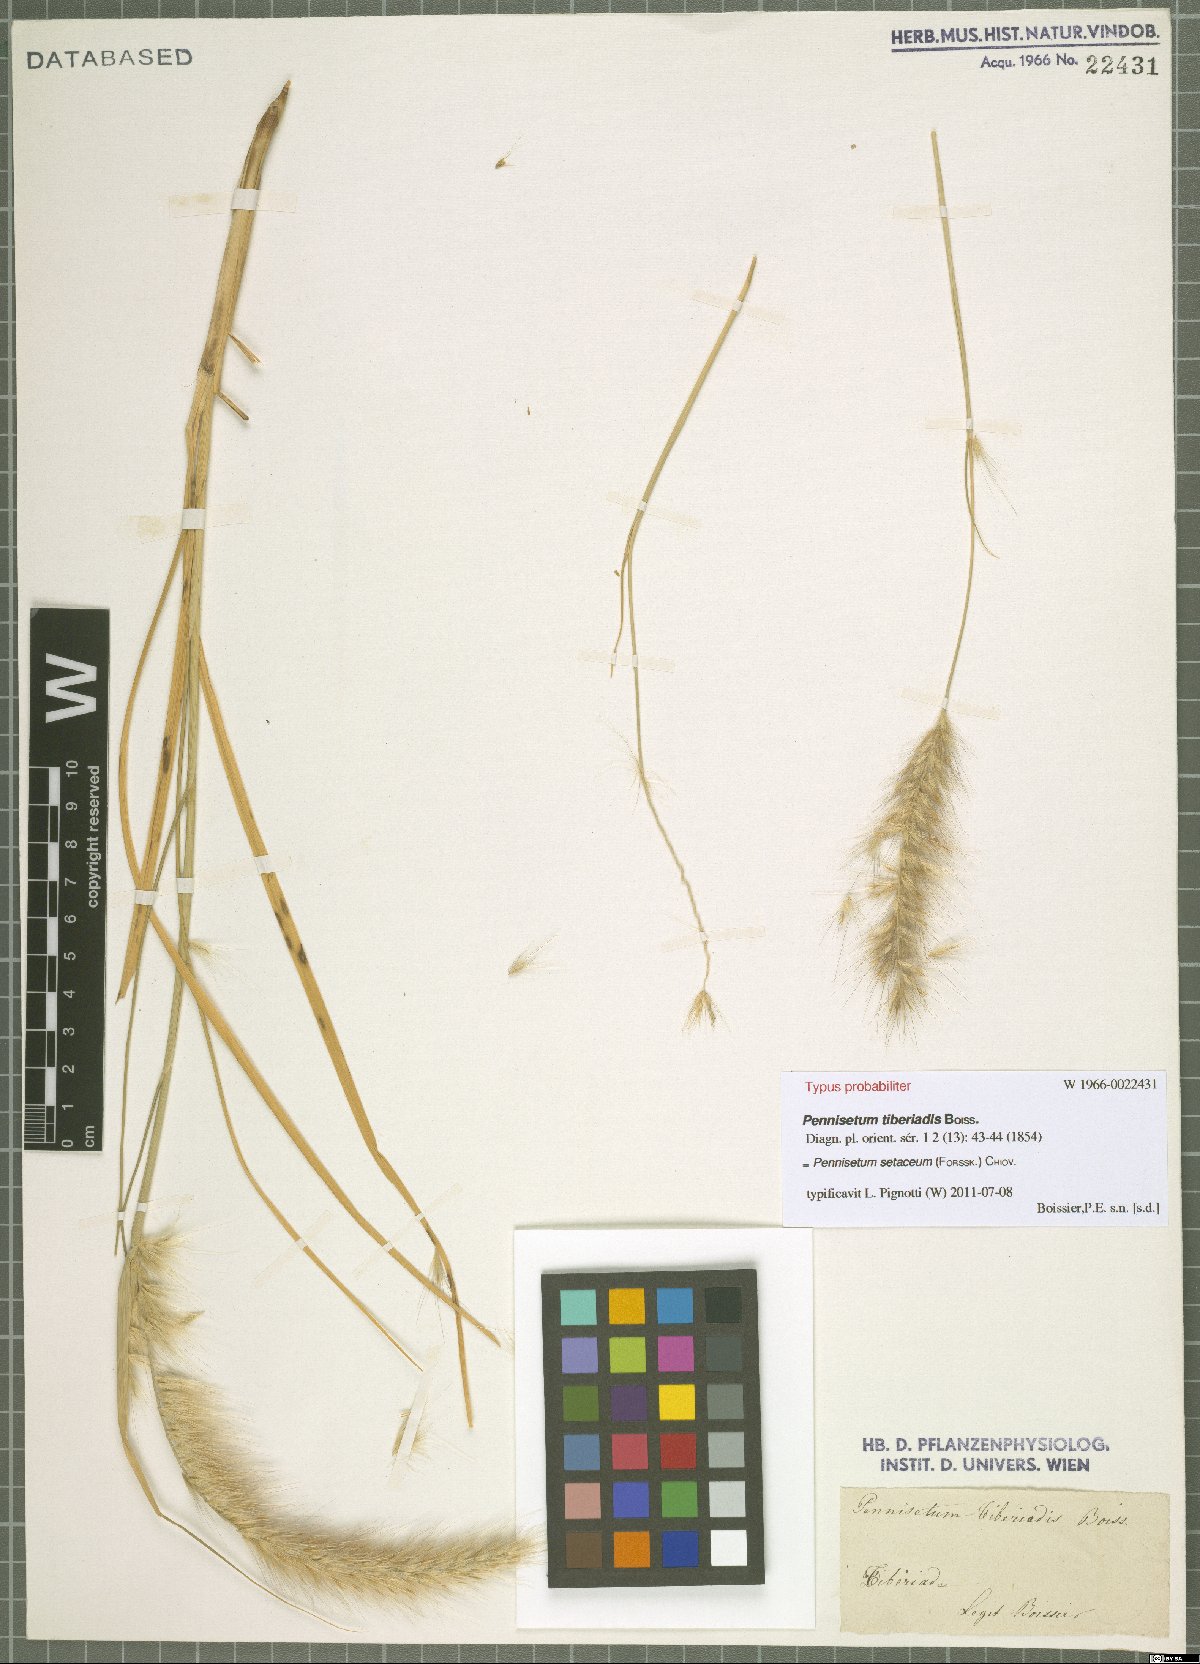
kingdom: Plantae
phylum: Tracheophyta
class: Liliopsida
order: Poales
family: Poaceae
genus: Cenchrus
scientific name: Cenchrus setaceus
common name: Crimson fountaingrass
